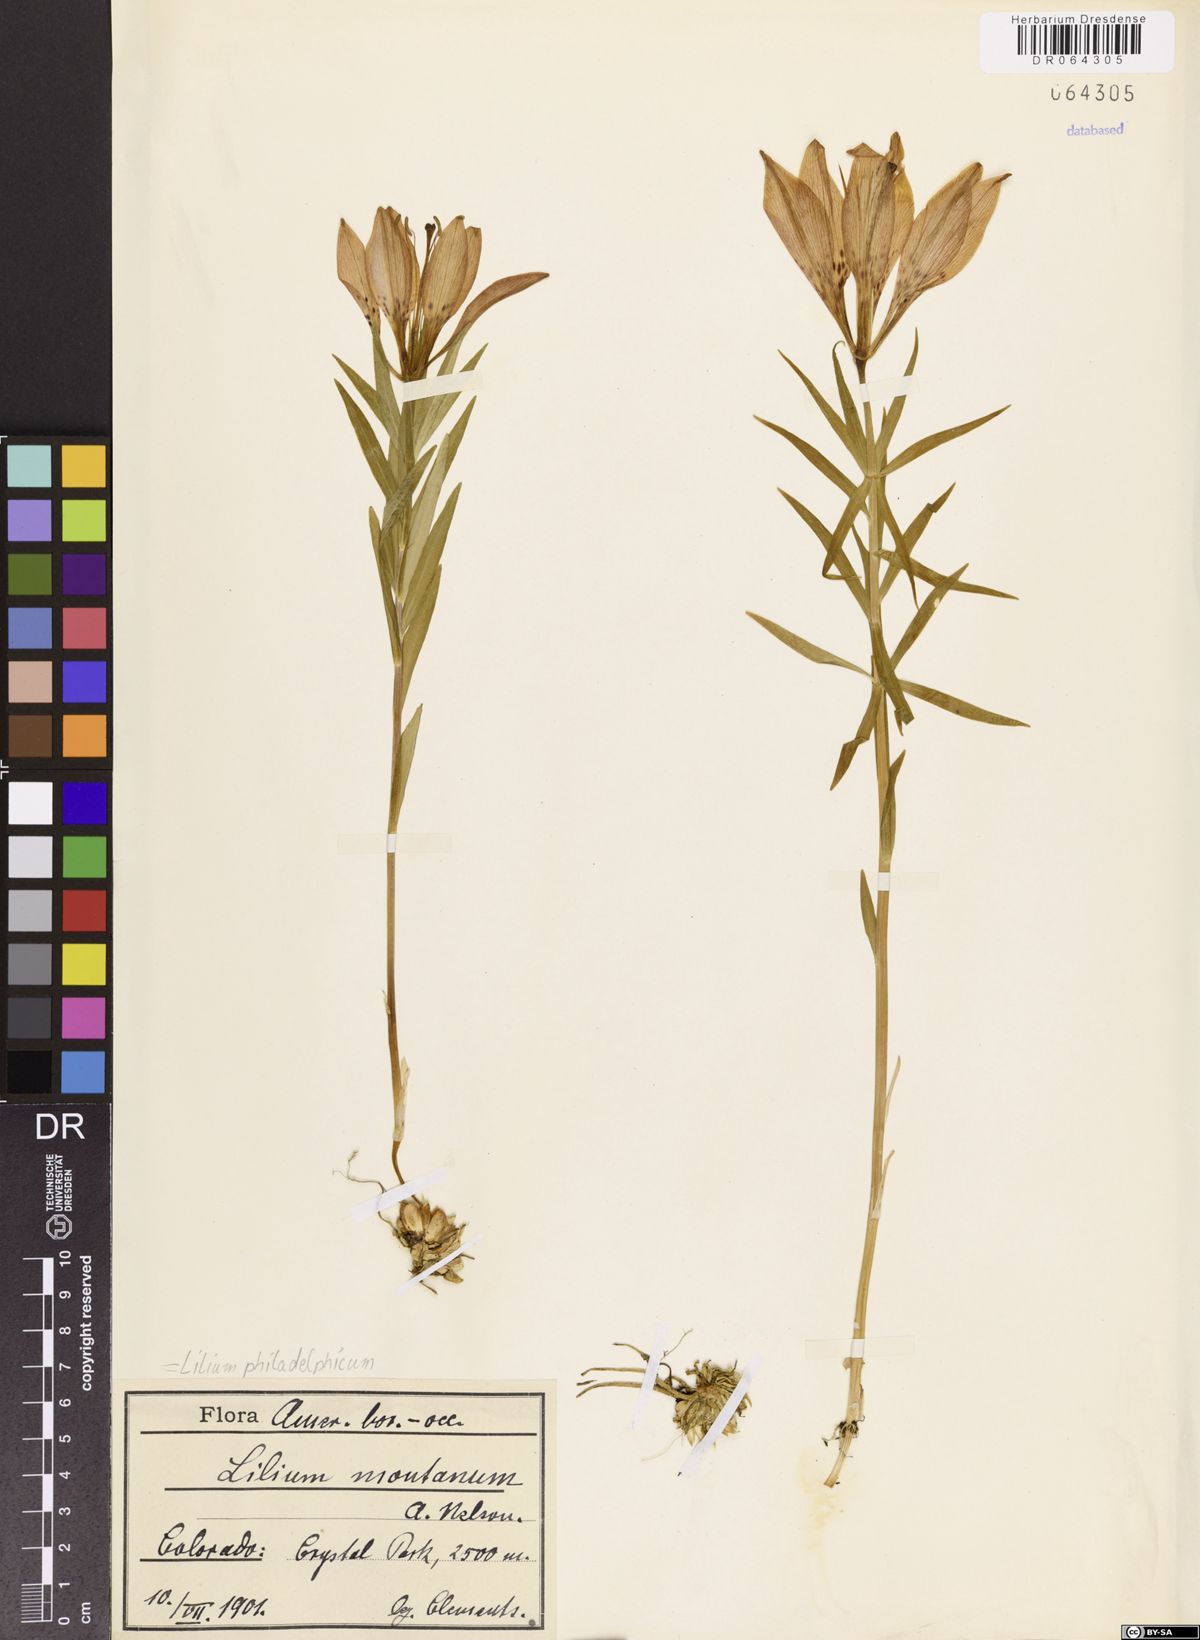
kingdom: Plantae
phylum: Tracheophyta
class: Liliopsida
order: Liliales
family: Liliaceae
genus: Lilium
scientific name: Lilium philadelphicum
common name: Red lily
